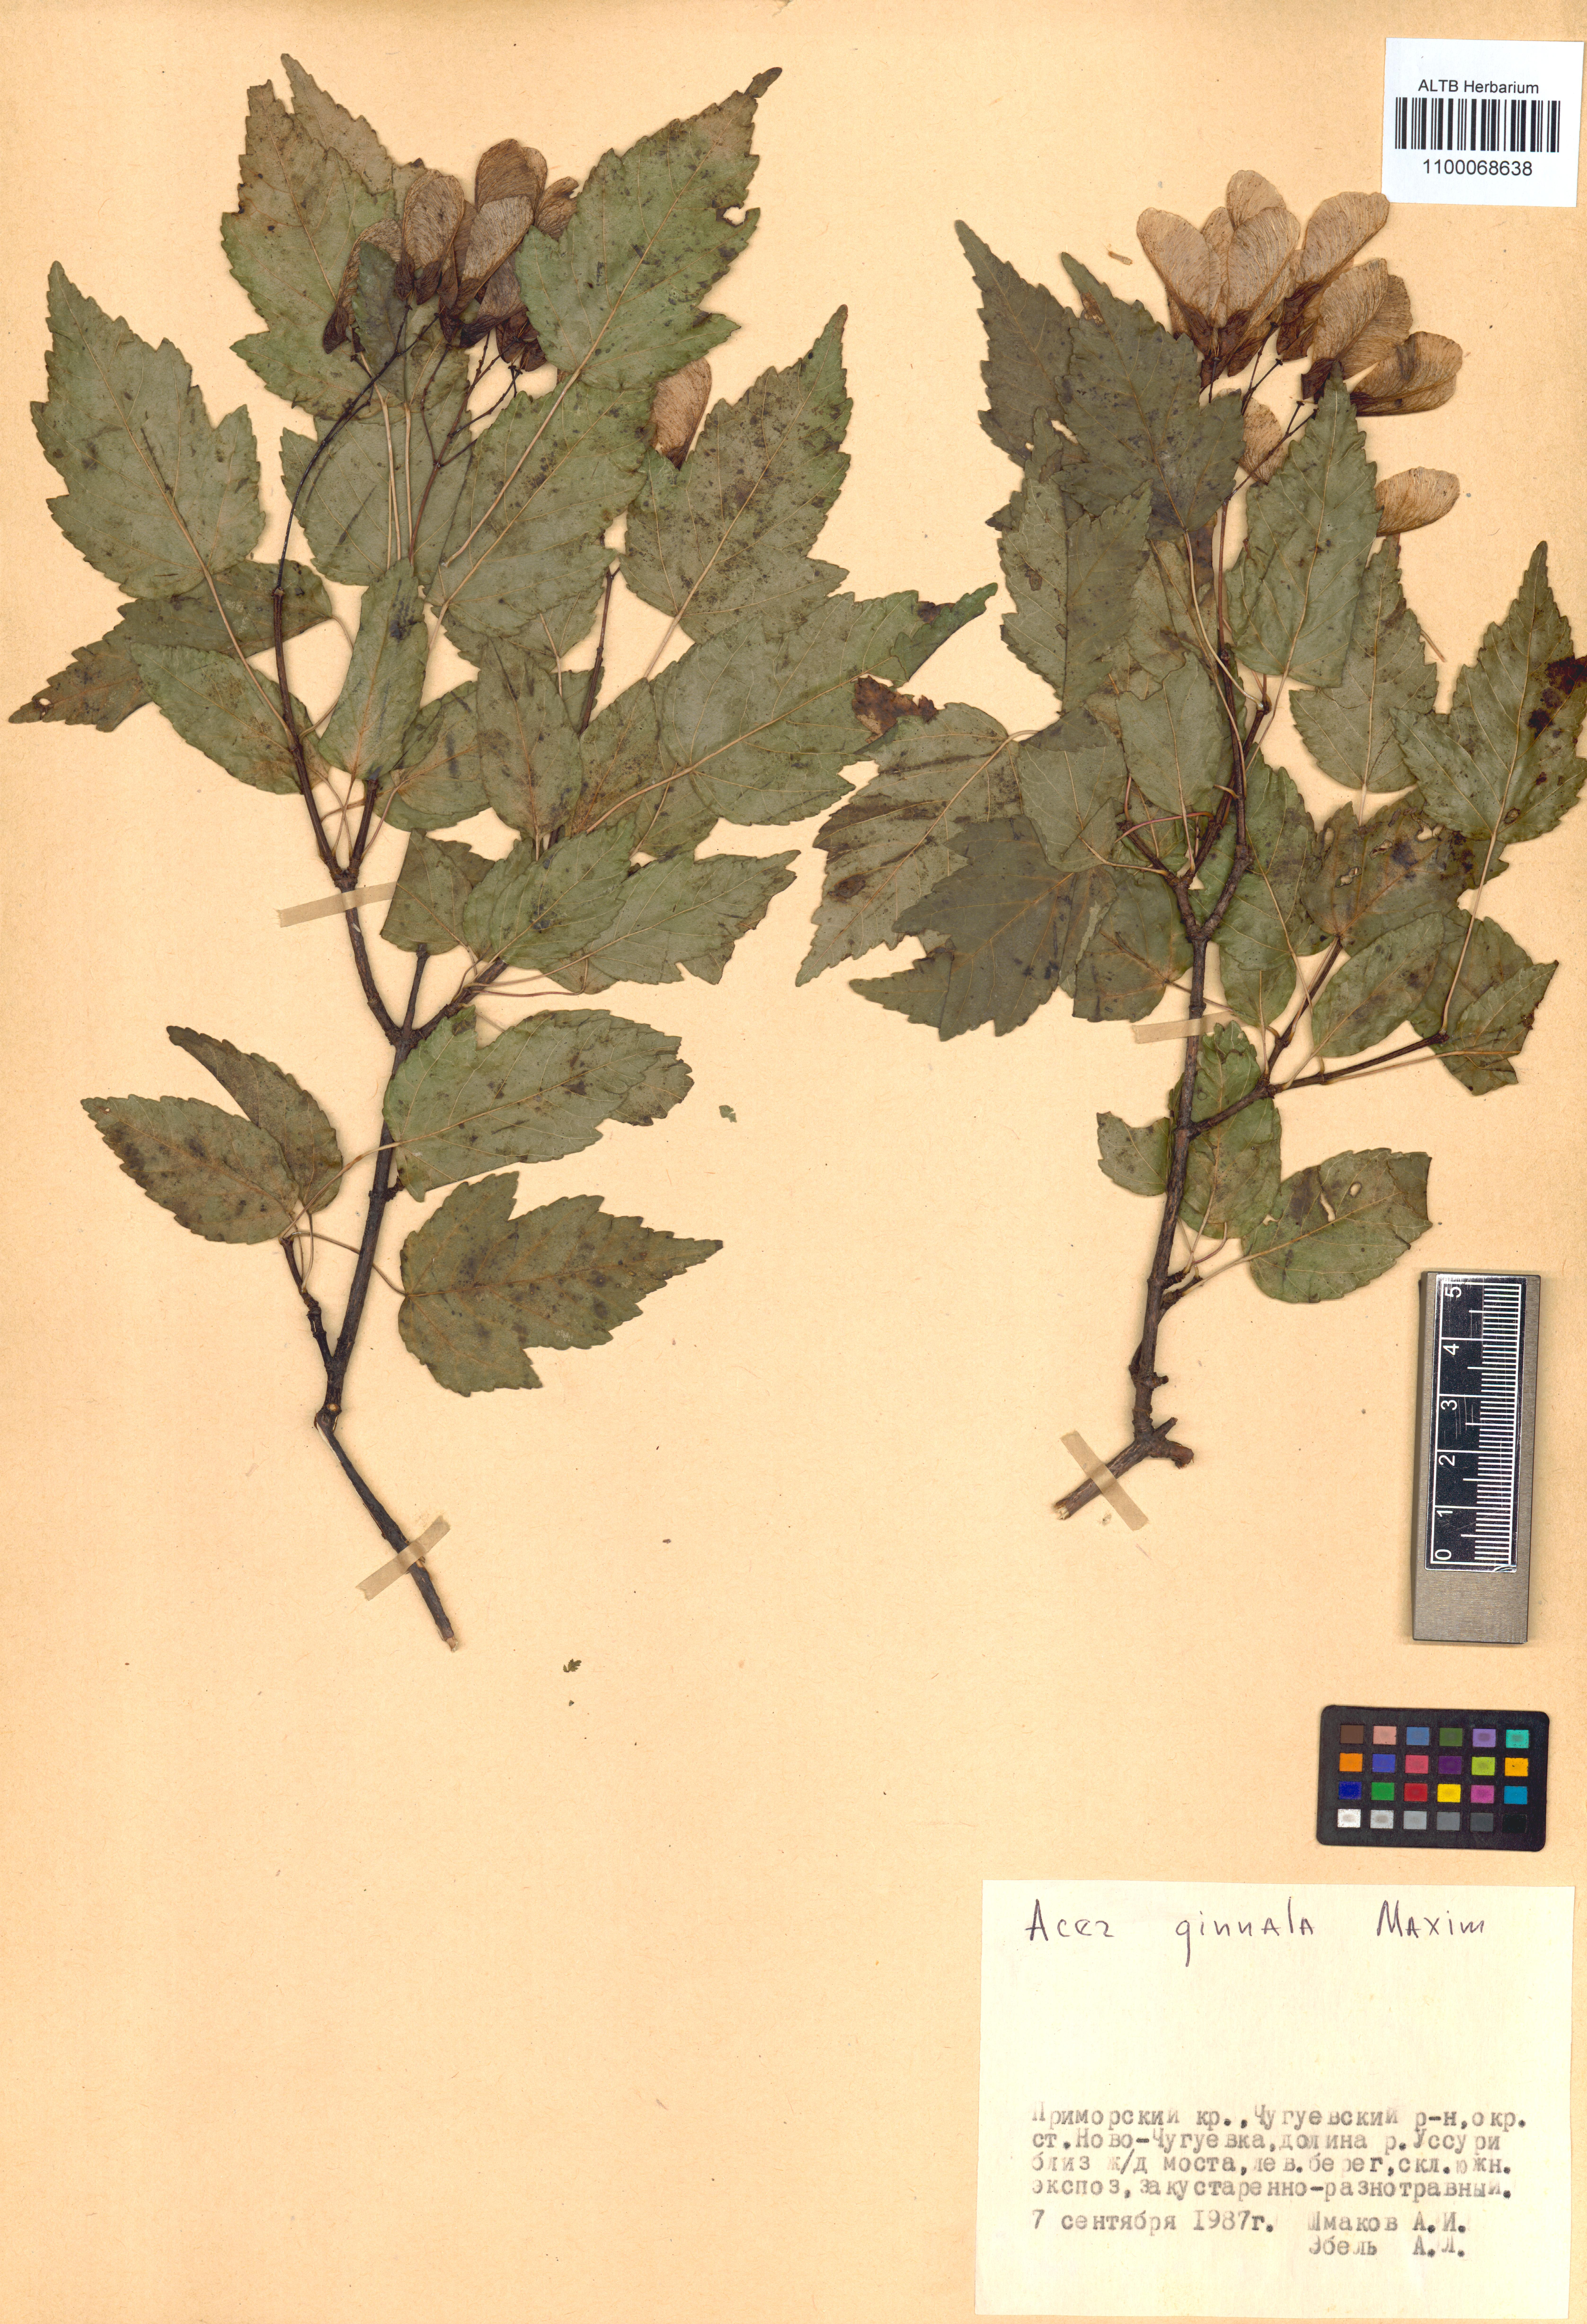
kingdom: Plantae
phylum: Tracheophyta
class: Magnoliopsida
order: Sapindales
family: Sapindaceae
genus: Acer
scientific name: Acer tataricum
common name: Tartar maple
